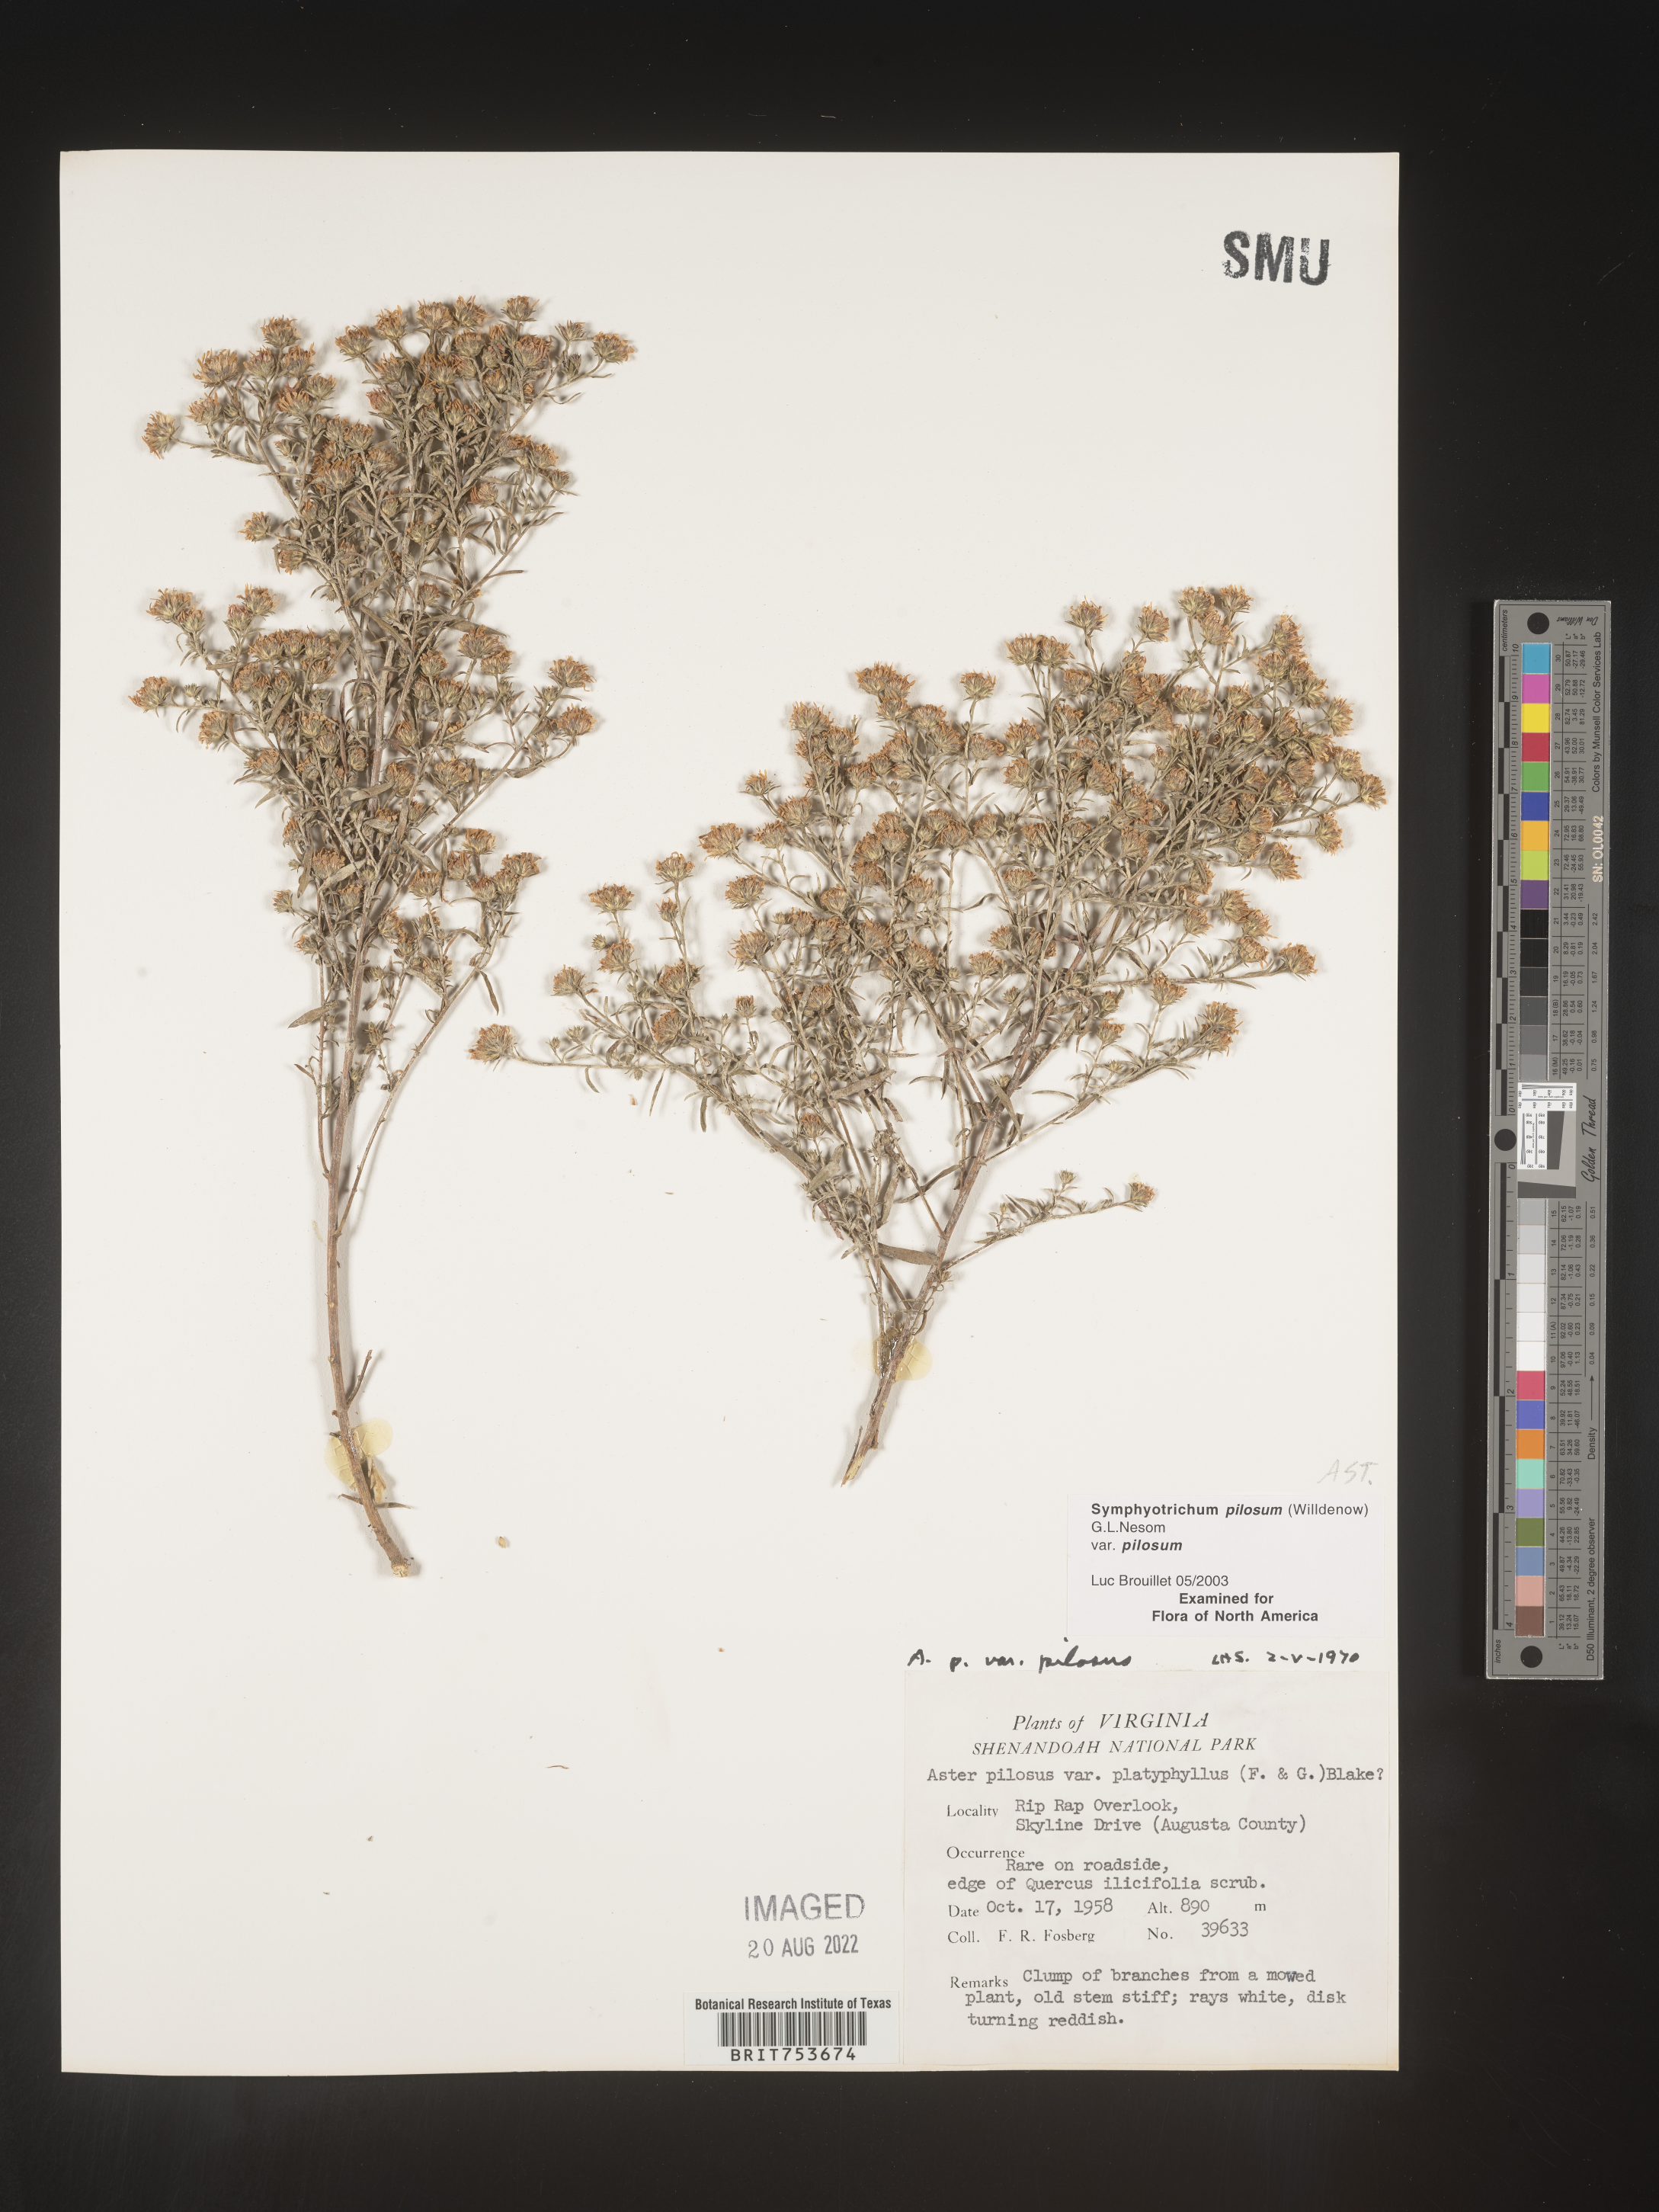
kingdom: Plantae
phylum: Tracheophyta
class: Magnoliopsida
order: Asterales
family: Asteraceae
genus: Symphyotrichum
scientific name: Symphyotrichum pilosum
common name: Awl aster
